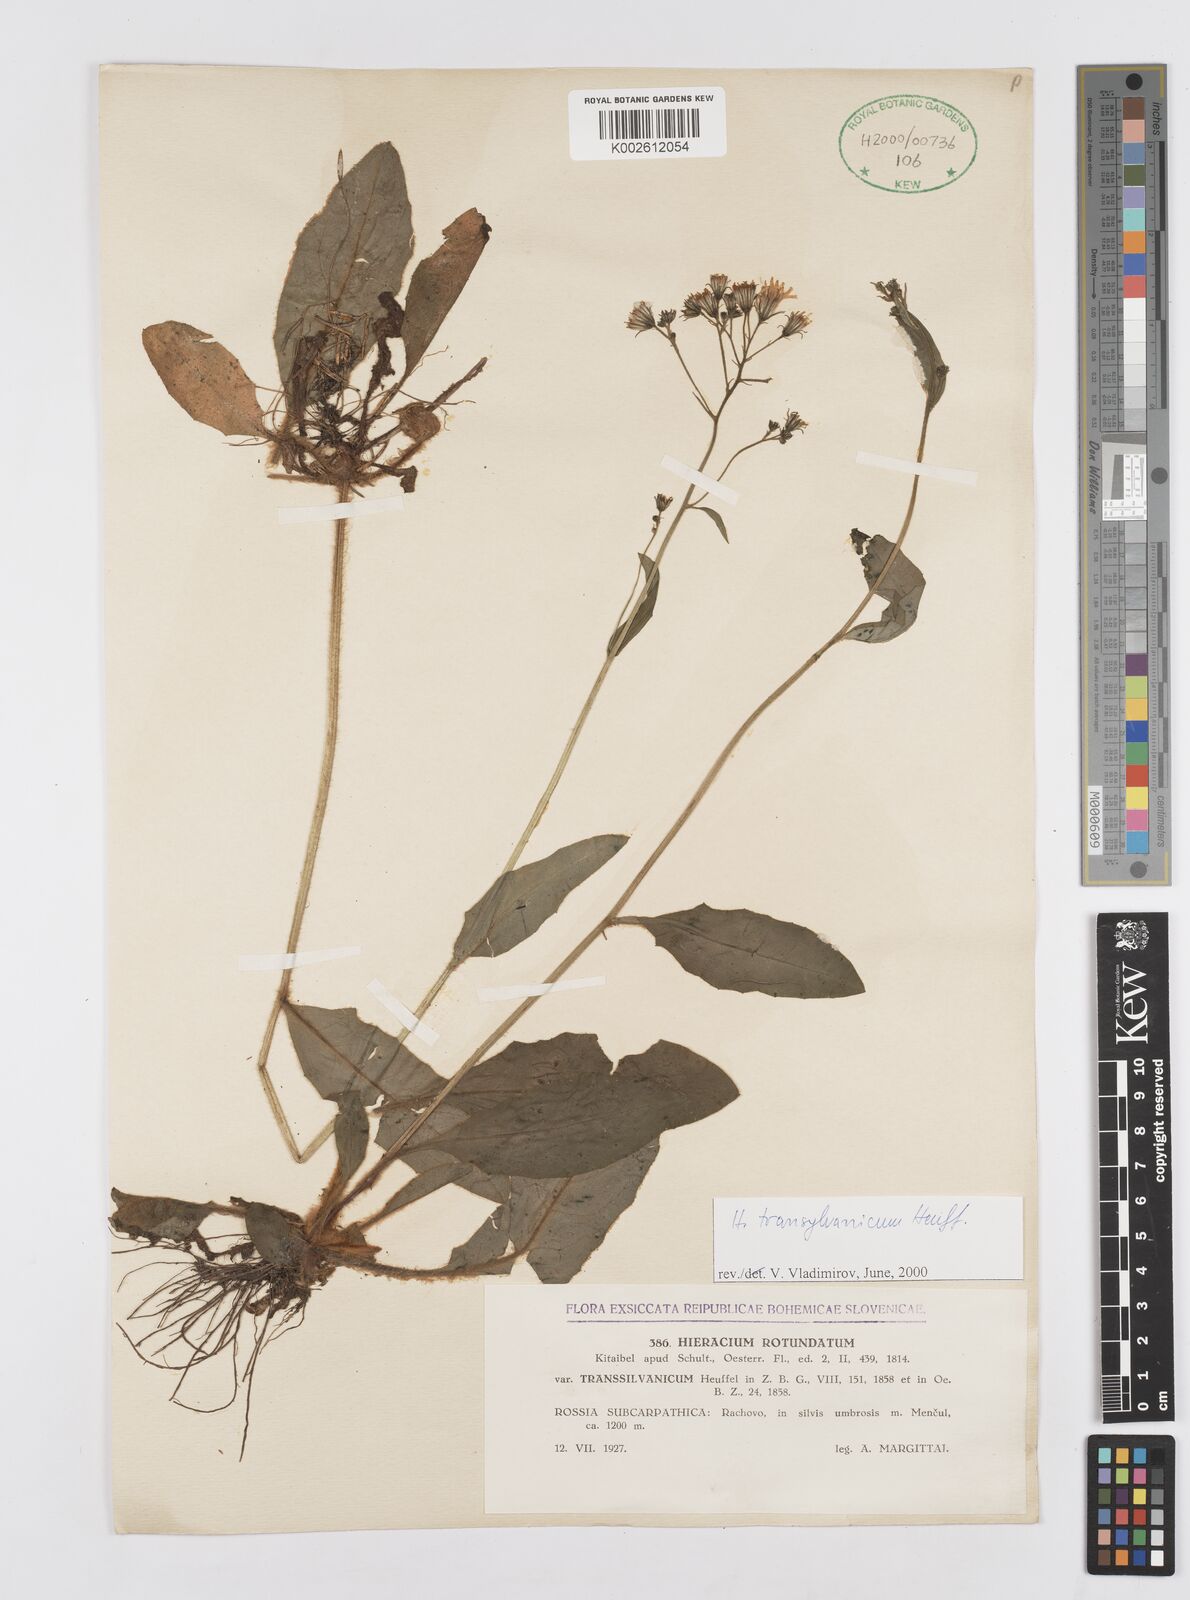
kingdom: Plantae
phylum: Tracheophyta
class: Magnoliopsida
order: Asterales
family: Asteraceae
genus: Hieracium
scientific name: Hieracium transylvanicum
